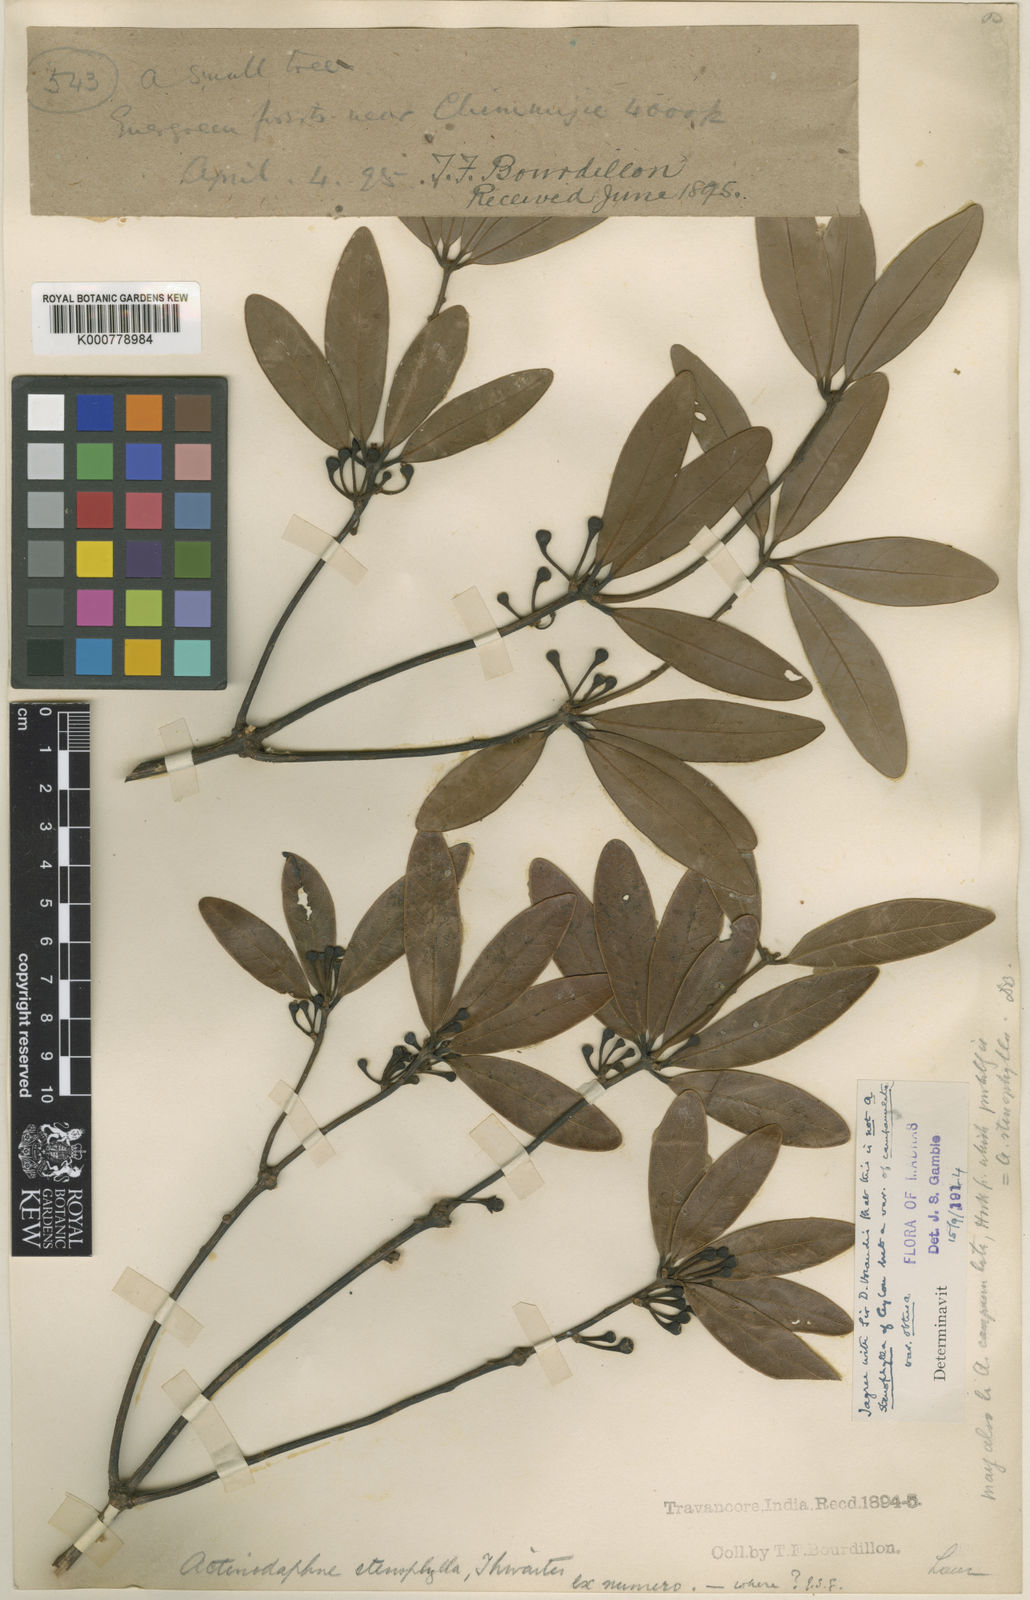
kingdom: Plantae
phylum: Tracheophyta
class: Magnoliopsida
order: Laurales
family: Lauraceae
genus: Actinodaphne
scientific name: Actinodaphne campanulata
